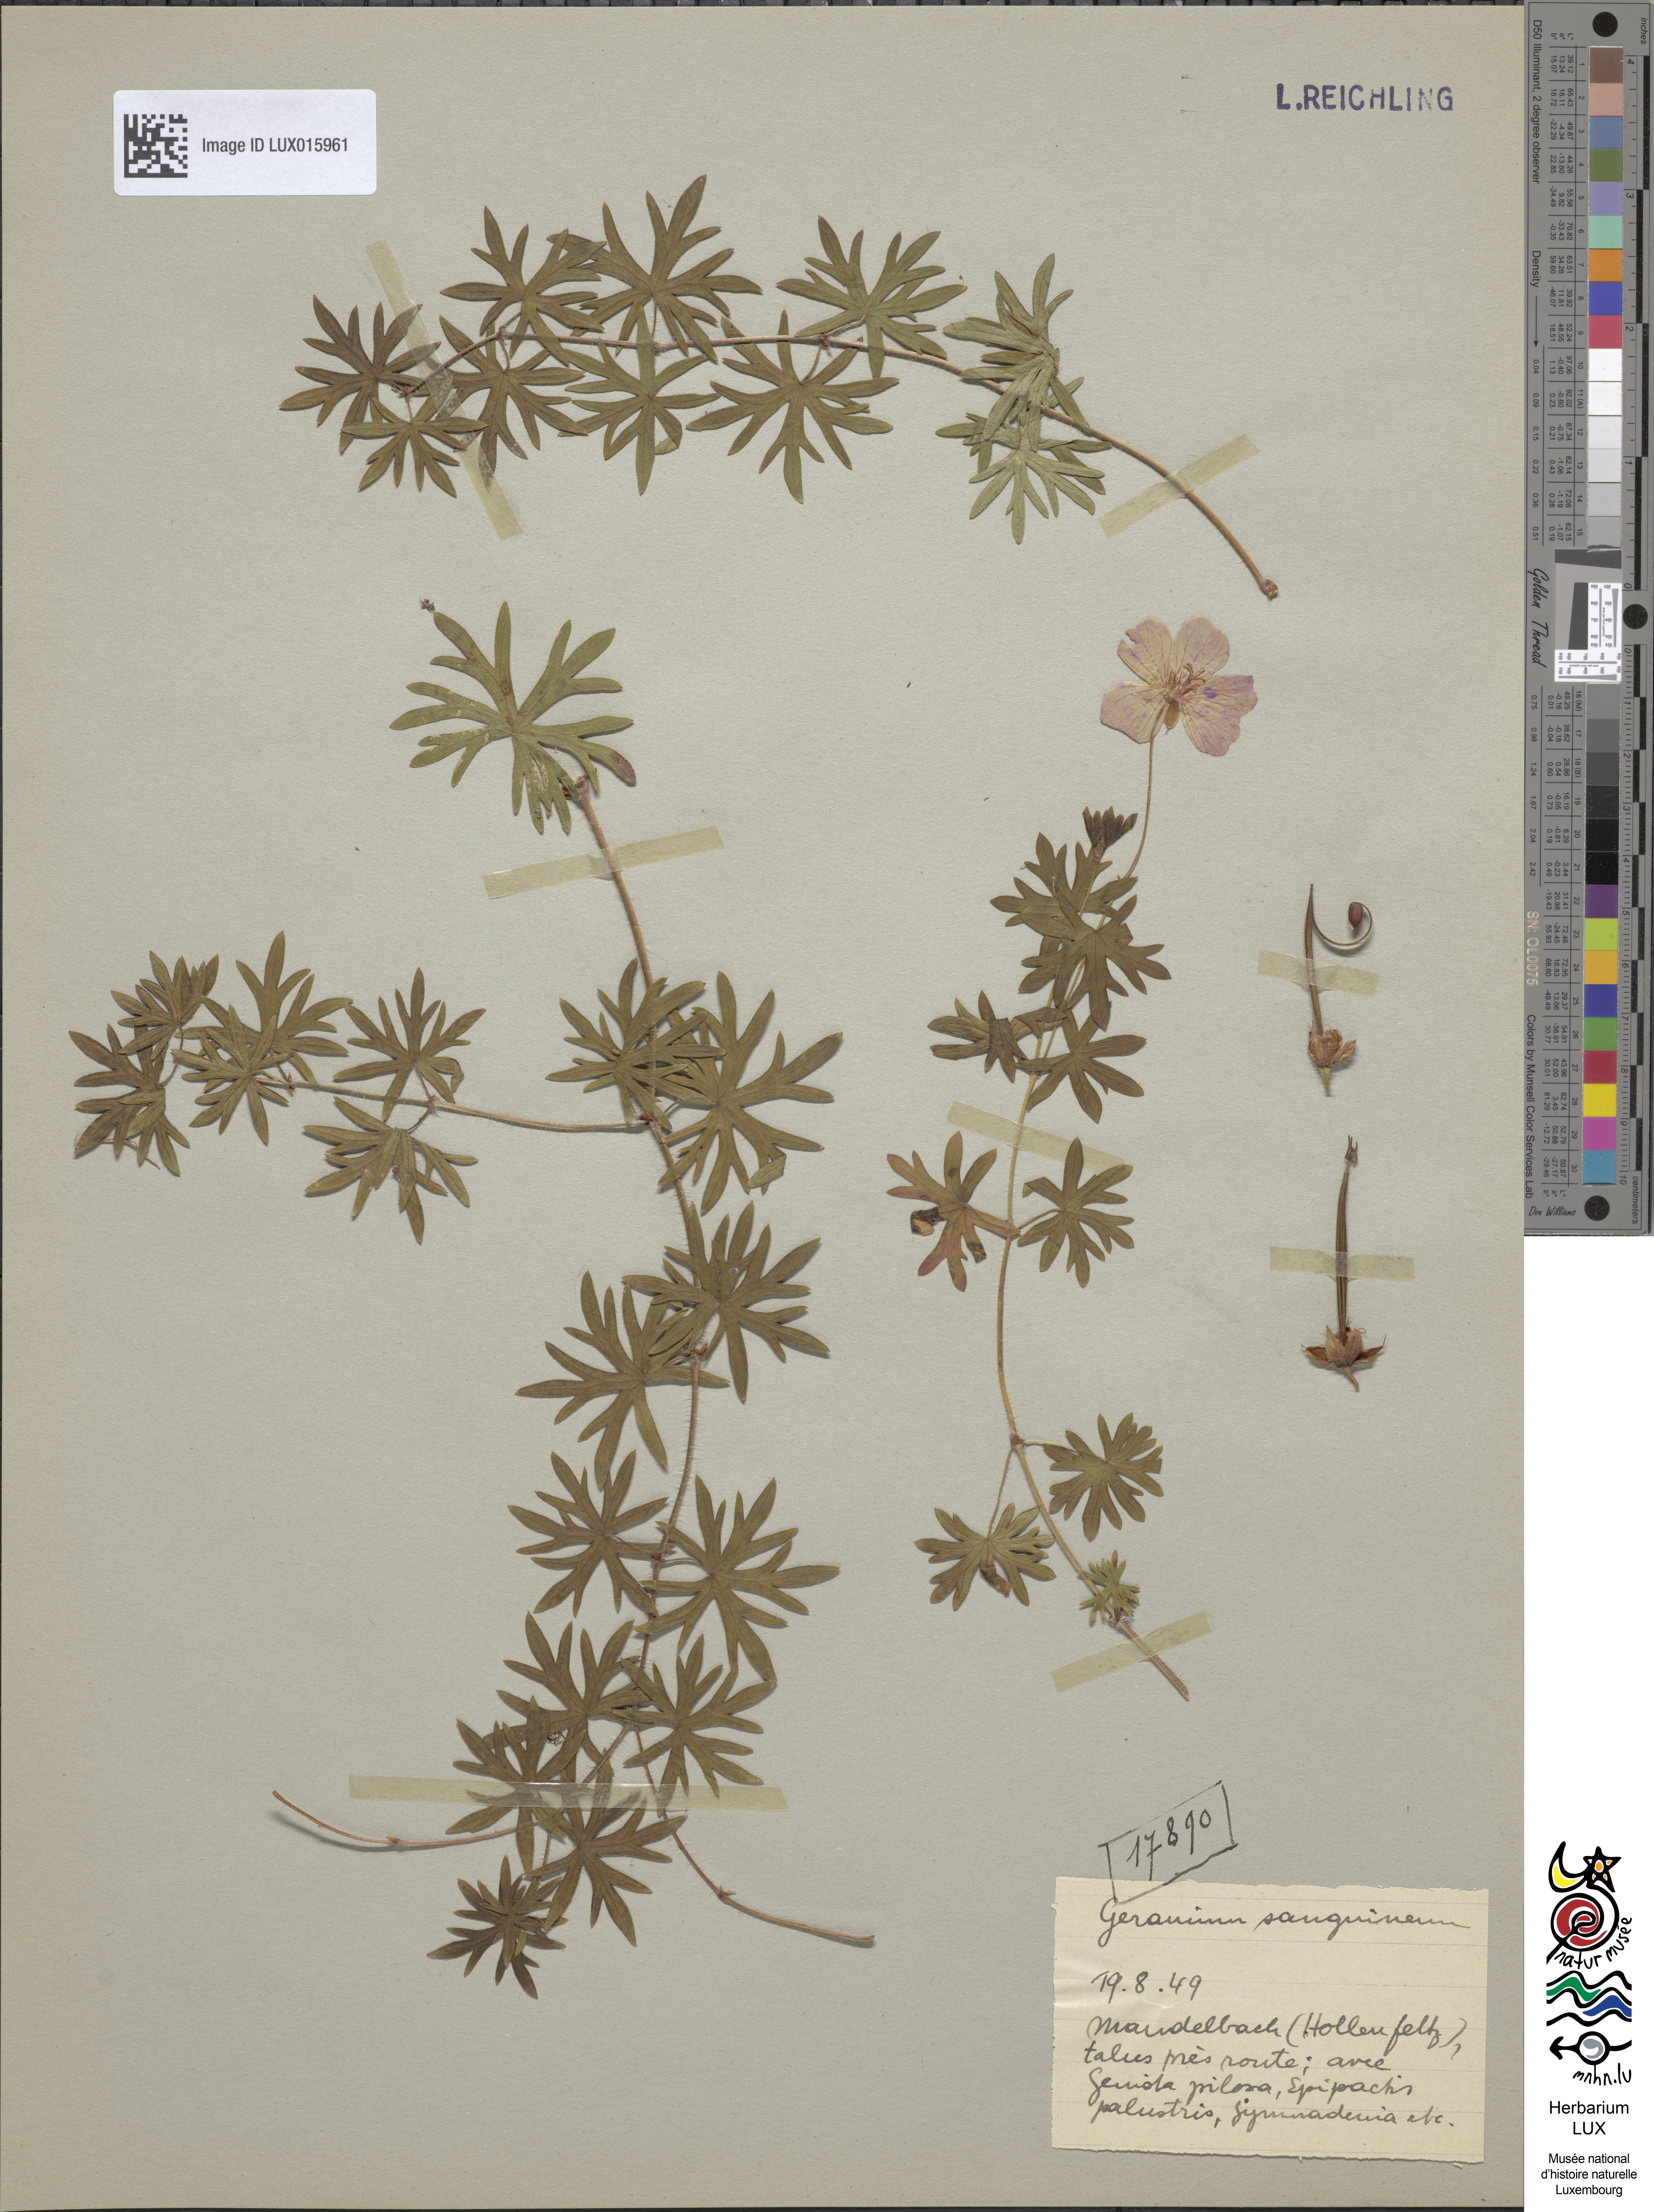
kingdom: Plantae
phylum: Tracheophyta
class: Magnoliopsida
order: Geraniales
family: Geraniaceae
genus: Geranium
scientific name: Geranium sanguineum
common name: Bloody crane's-bill
